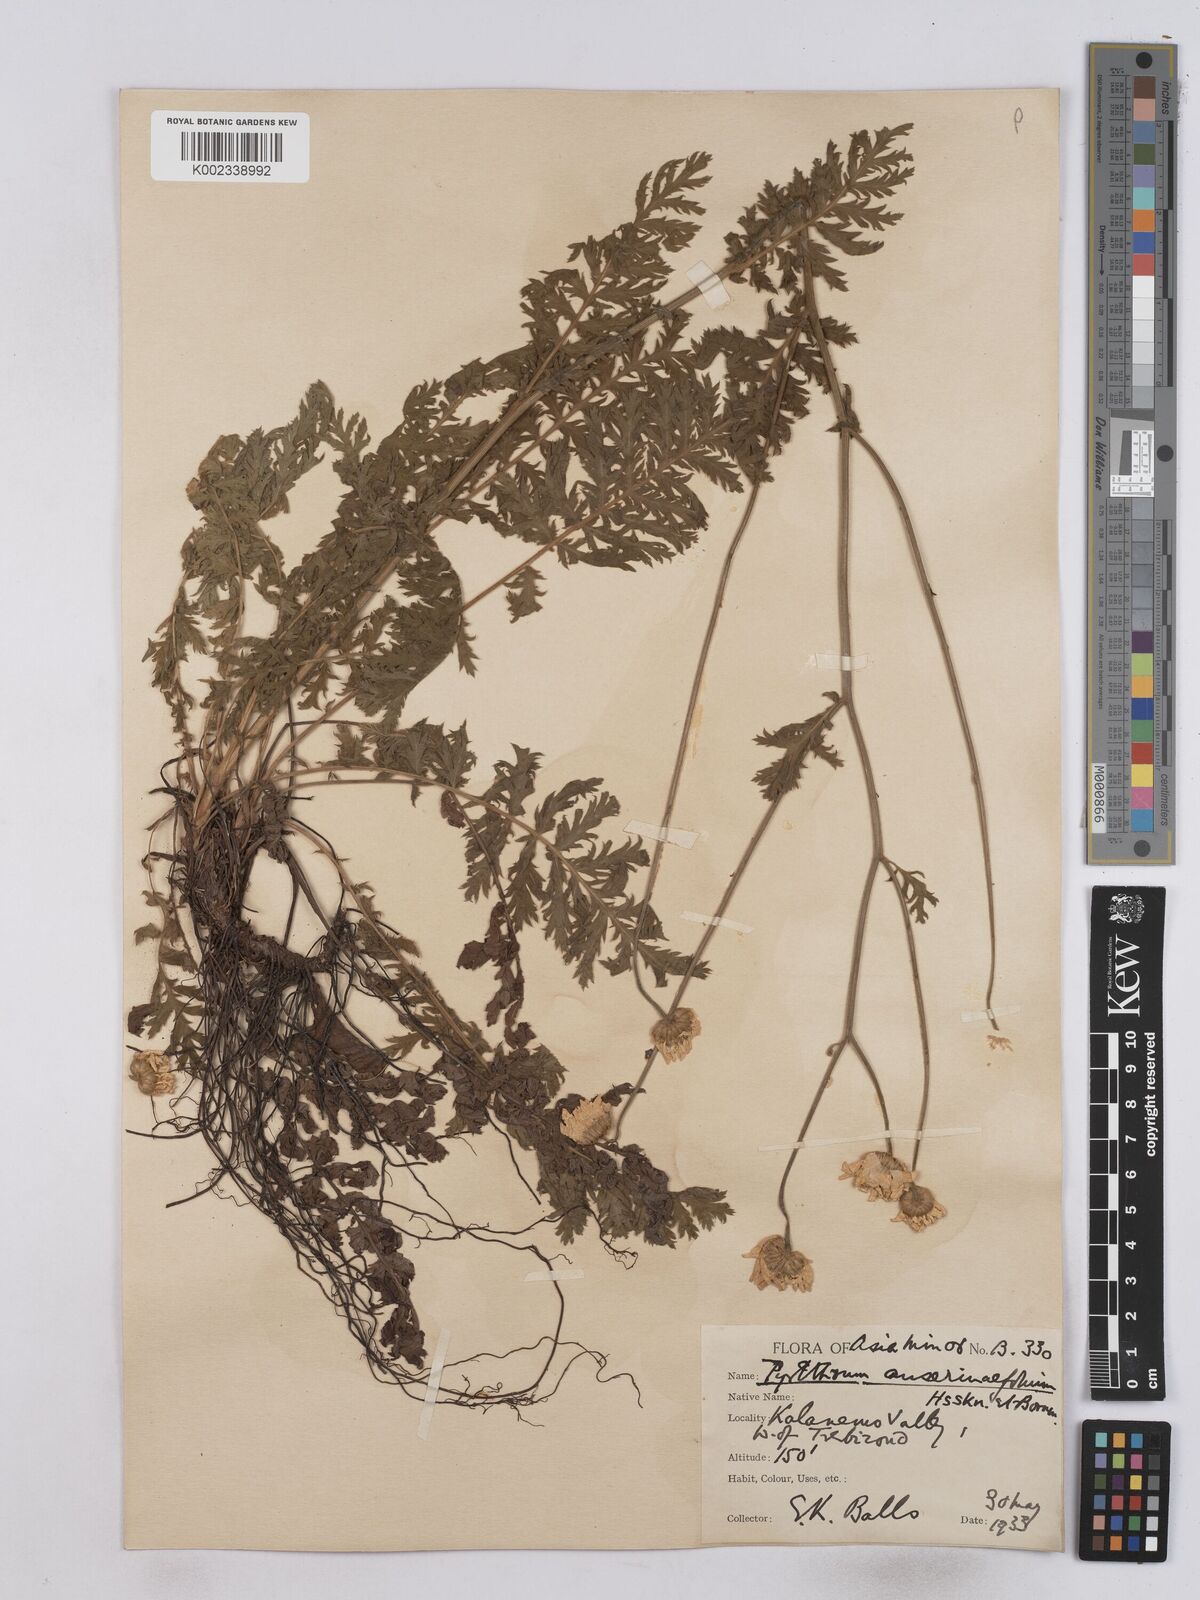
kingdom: Plantae
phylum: Tracheophyta
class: Magnoliopsida
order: Asterales
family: Asteraceae
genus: Tanacetum
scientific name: Tanacetum
